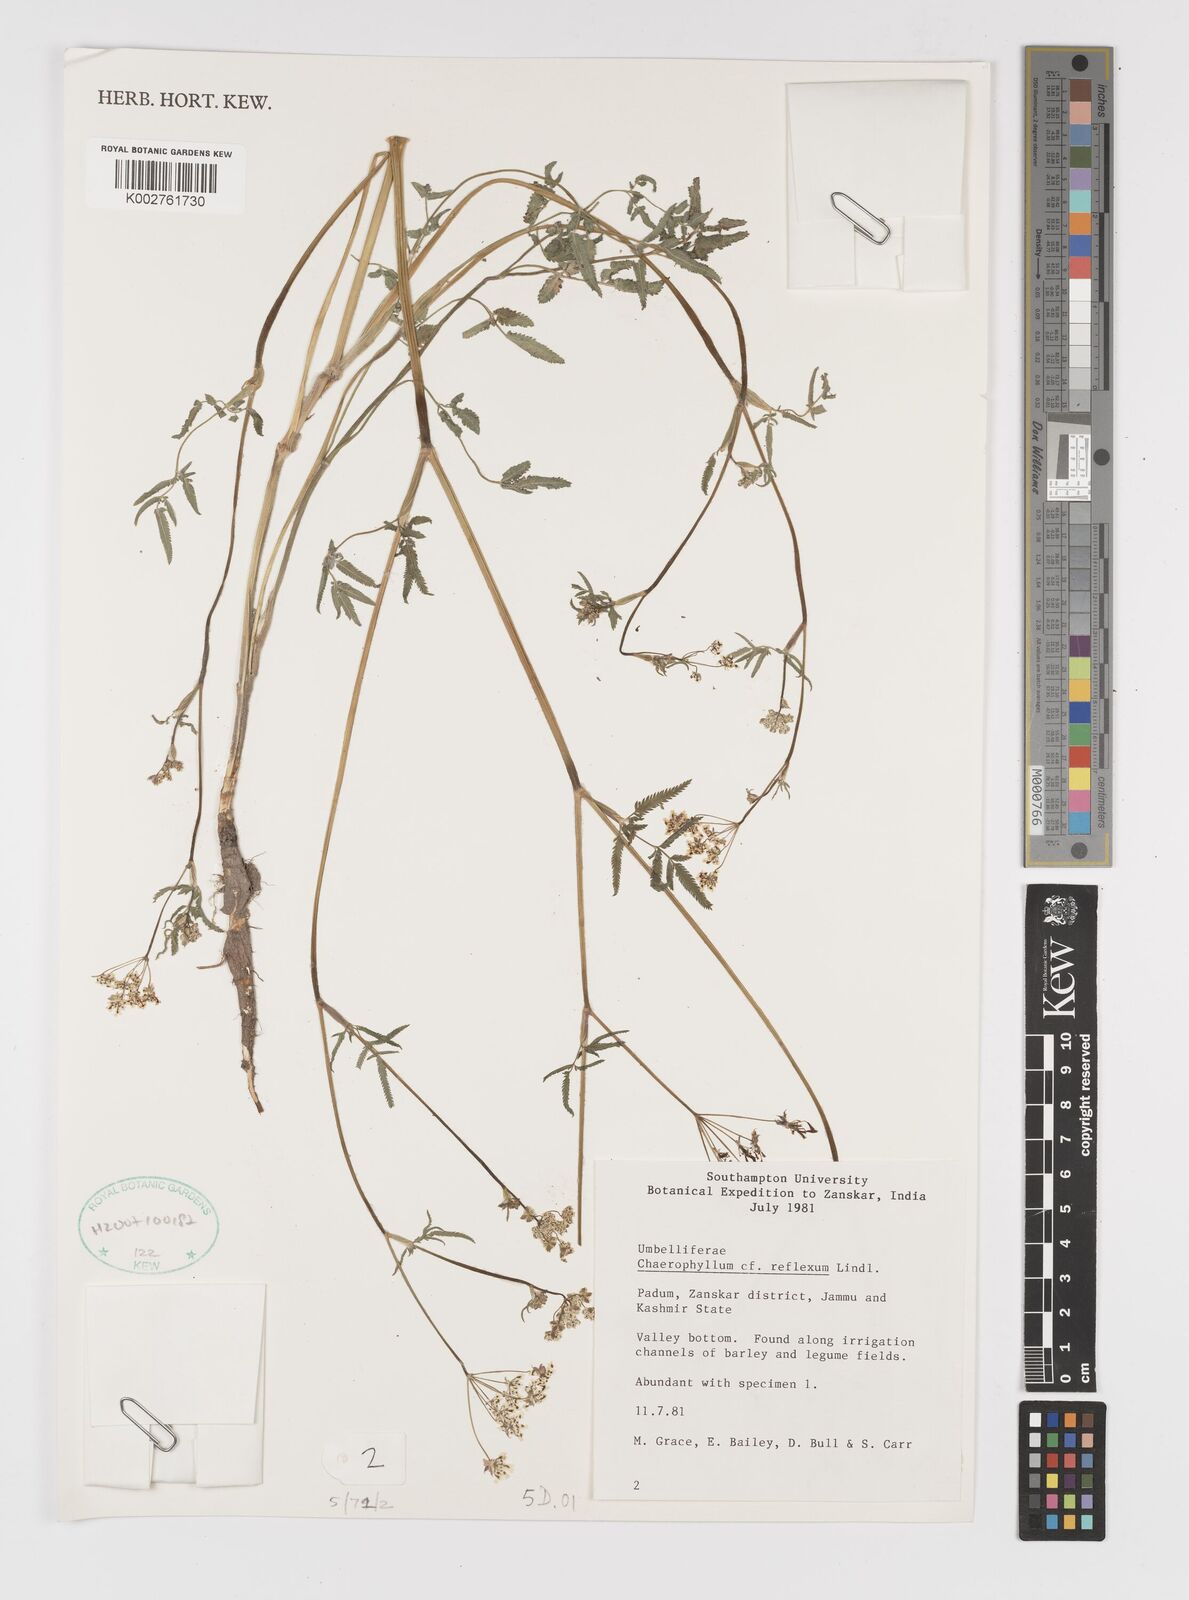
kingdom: Plantae
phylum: Tracheophyta
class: Magnoliopsida
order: Apiales
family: Apiaceae
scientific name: Apiaceae
